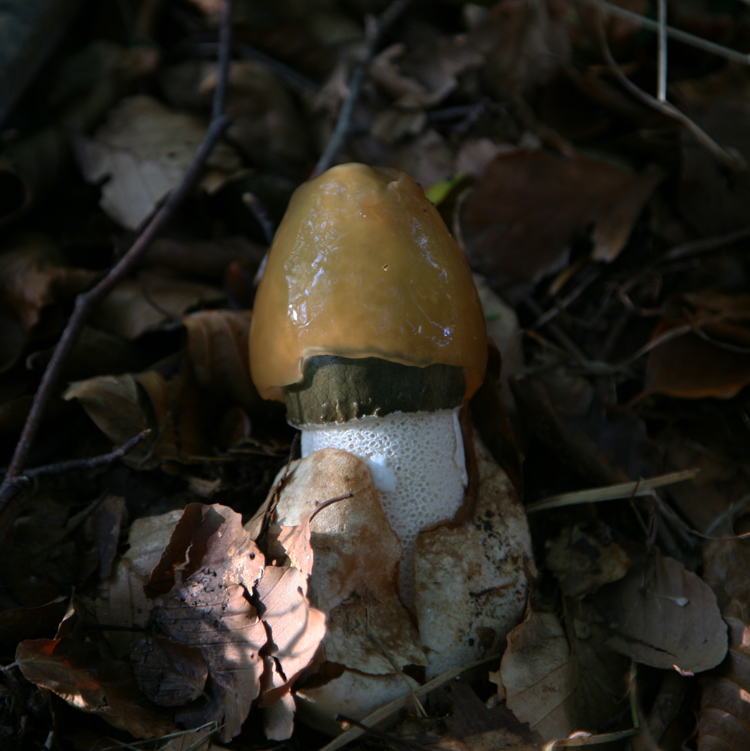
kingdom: Fungi
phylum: Basidiomycota
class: Agaricomycetes
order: Phallales
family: Phallaceae
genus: Phallus
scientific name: Phallus impudicus
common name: almindelig stinksvamp
